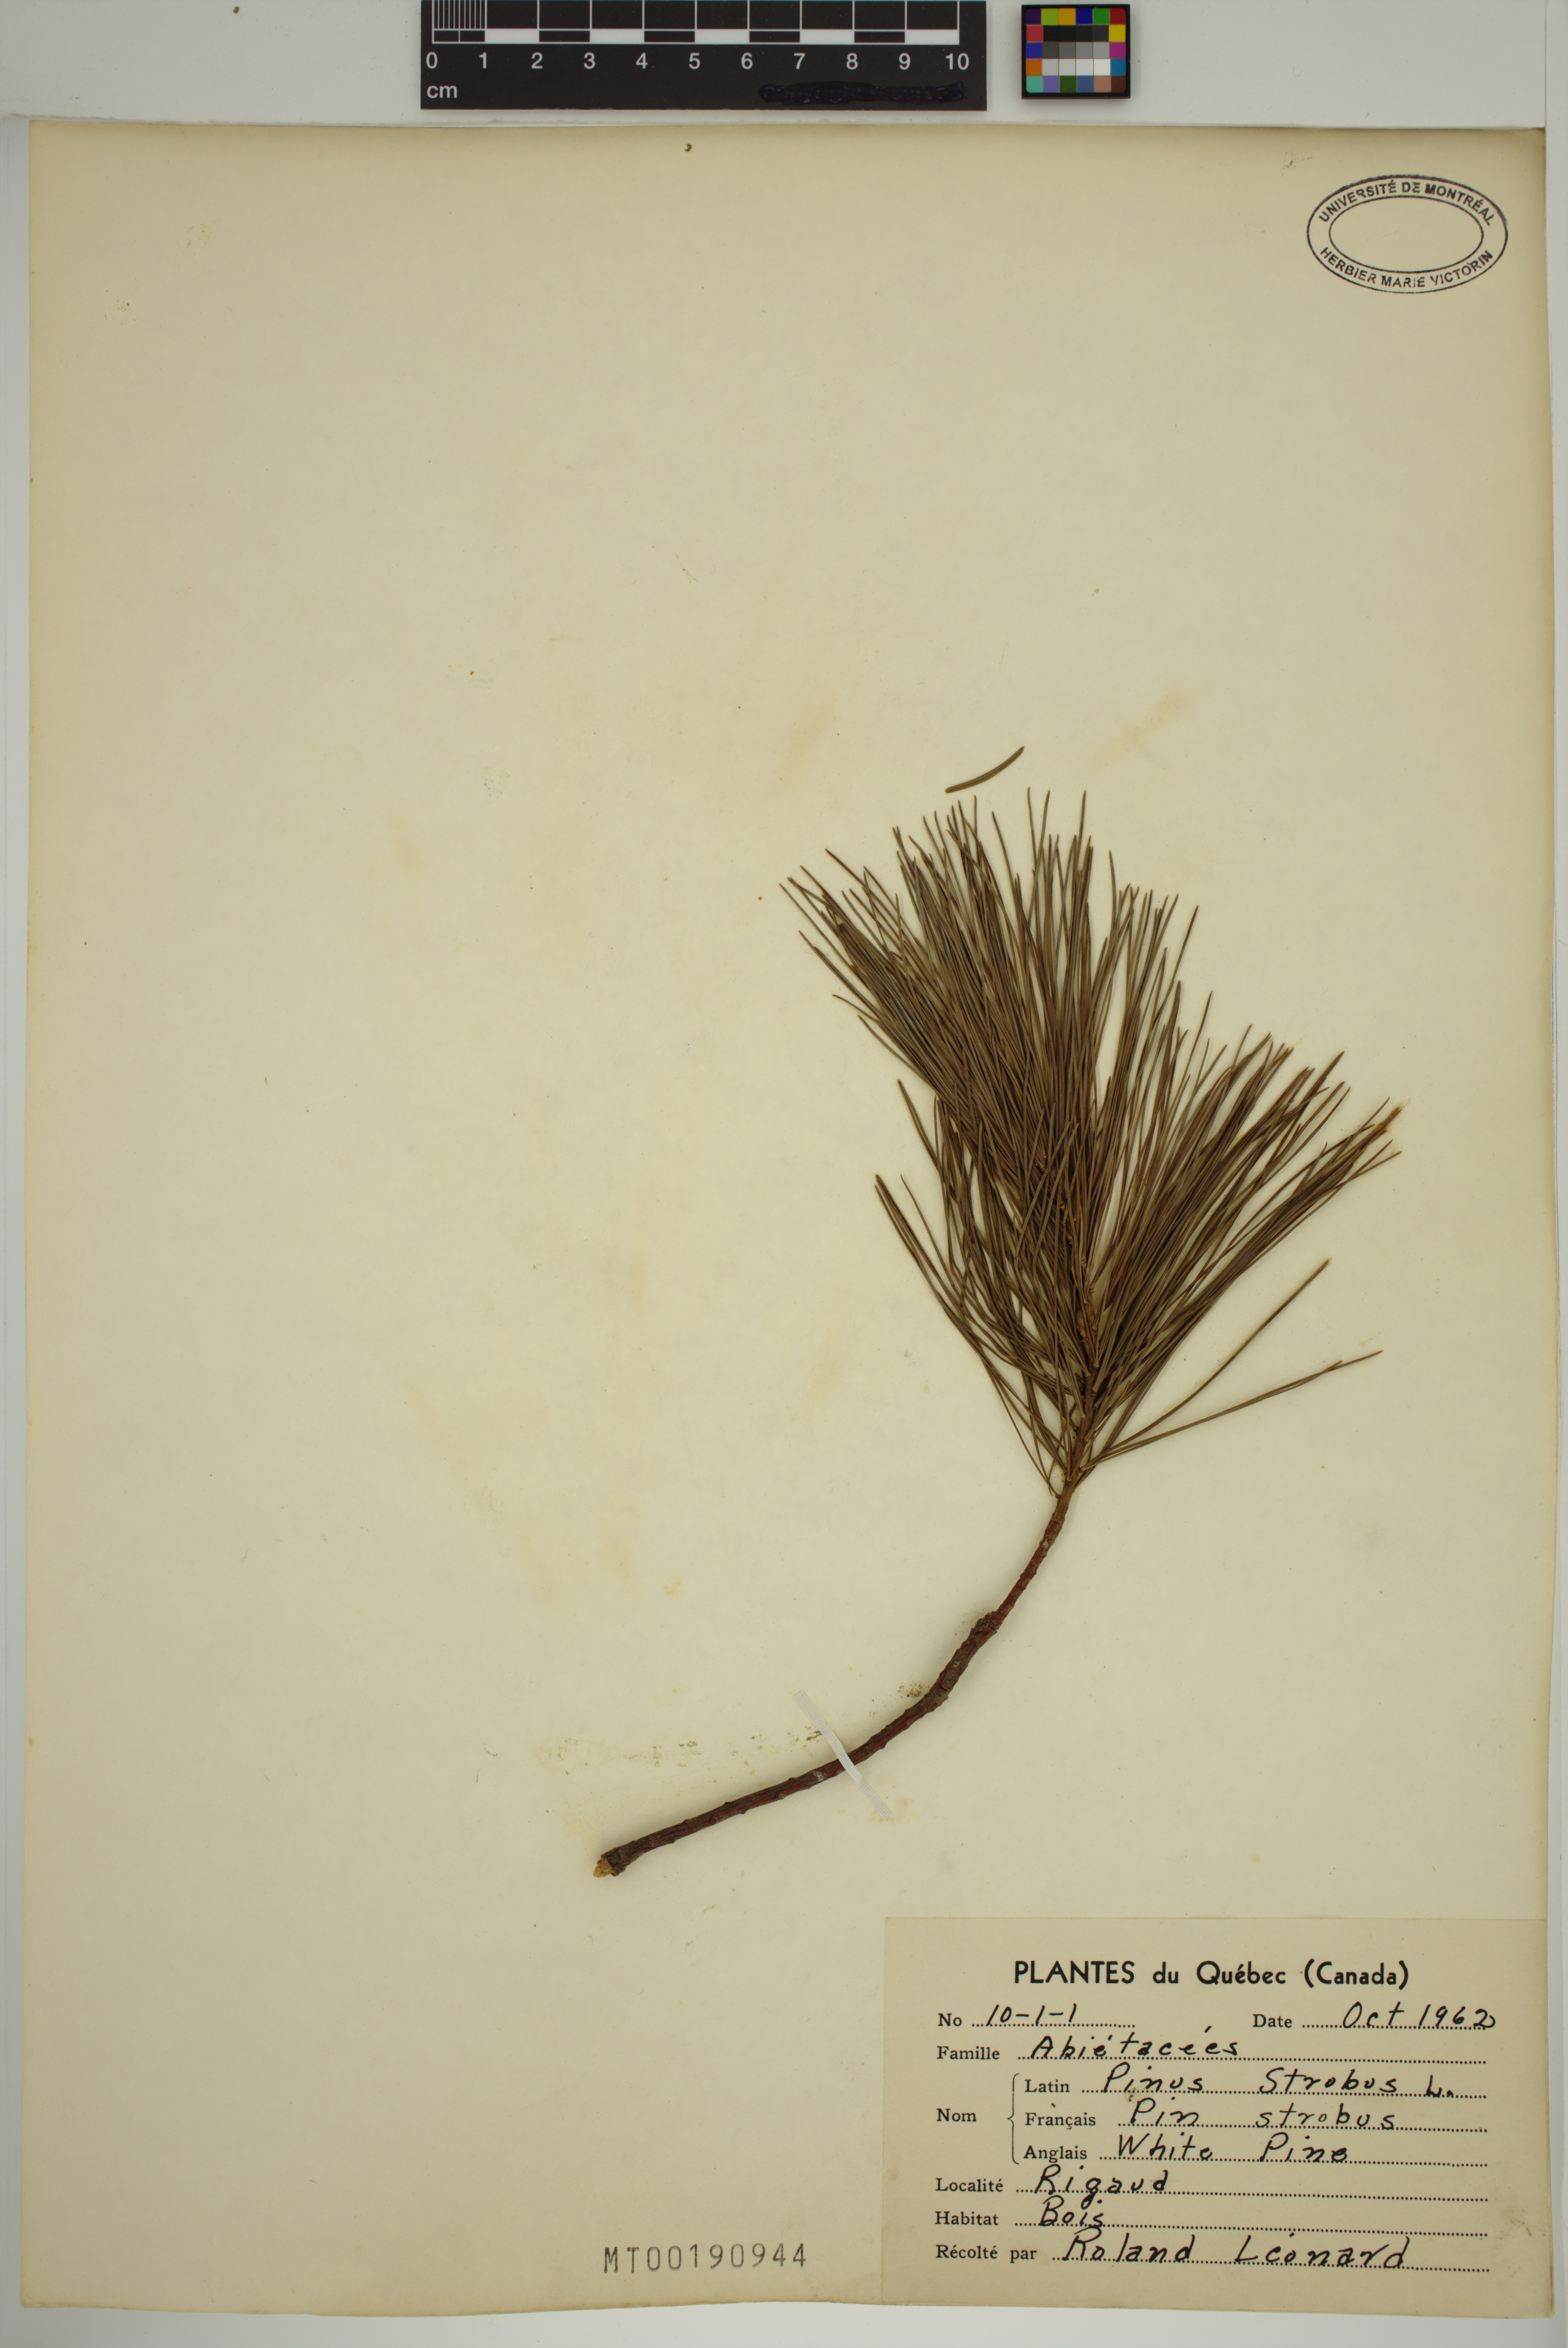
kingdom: Plantae
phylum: Tracheophyta
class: Pinopsida
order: Pinales
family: Pinaceae
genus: Pinus
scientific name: Pinus strobus
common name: Weymouth pine
